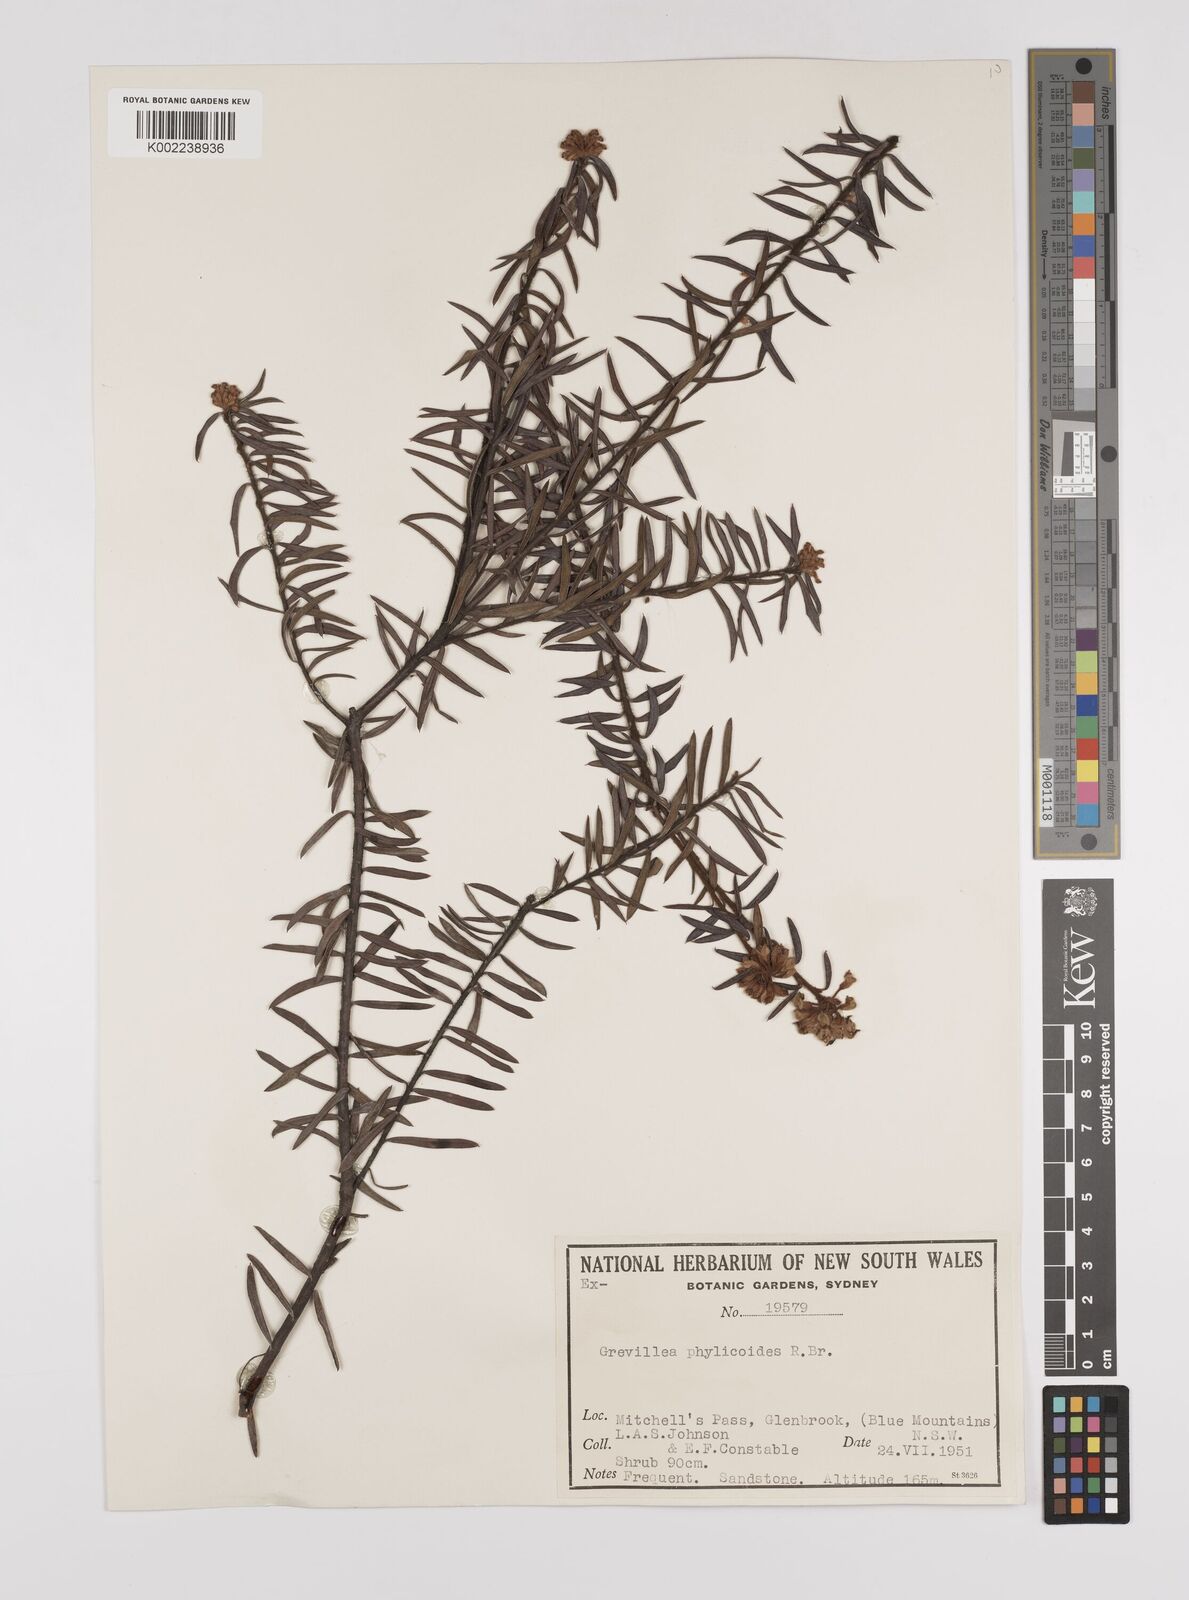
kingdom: Plantae
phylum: Tracheophyta
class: Magnoliopsida
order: Proteales
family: Proteaceae
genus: Grevillea
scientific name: Grevillea phylicoides
